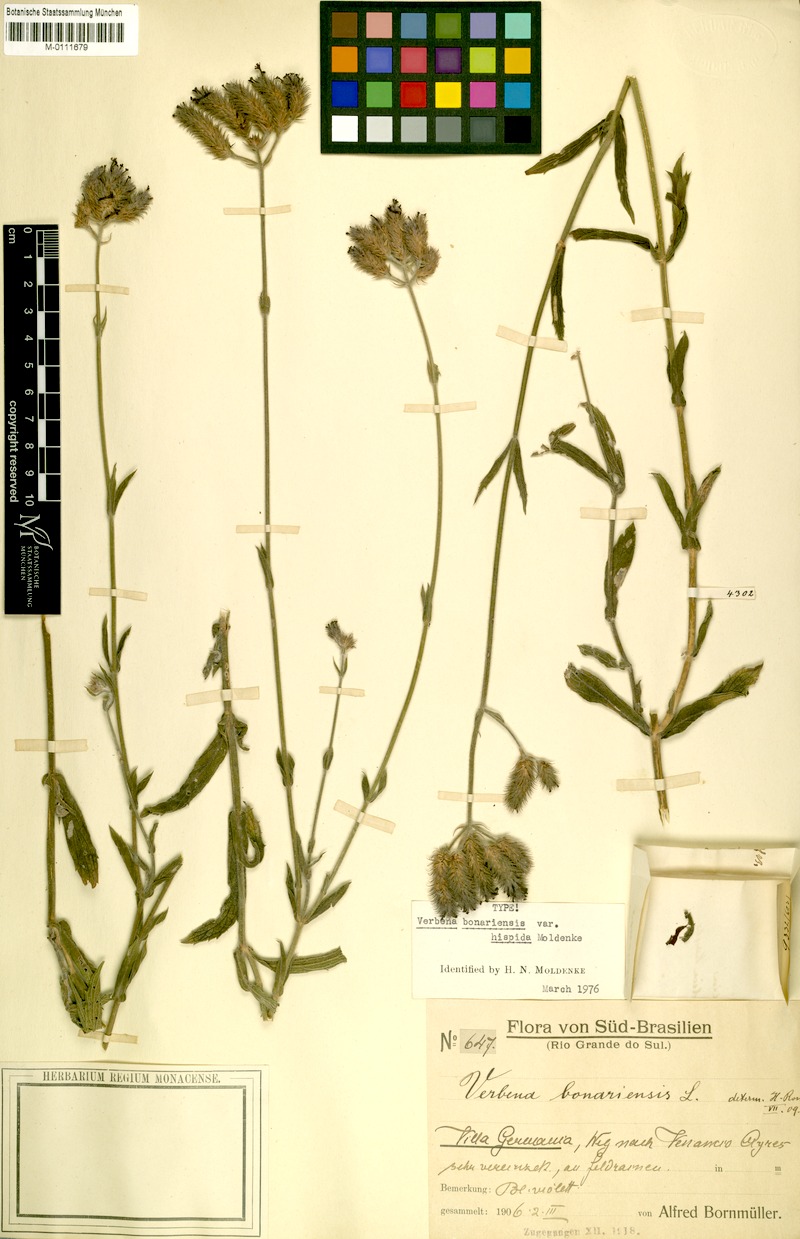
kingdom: Plantae
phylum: Tracheophyta
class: Magnoliopsida
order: Lamiales
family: Verbenaceae
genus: Verbena
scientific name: Verbena bonariensis
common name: Purpletop vervain
